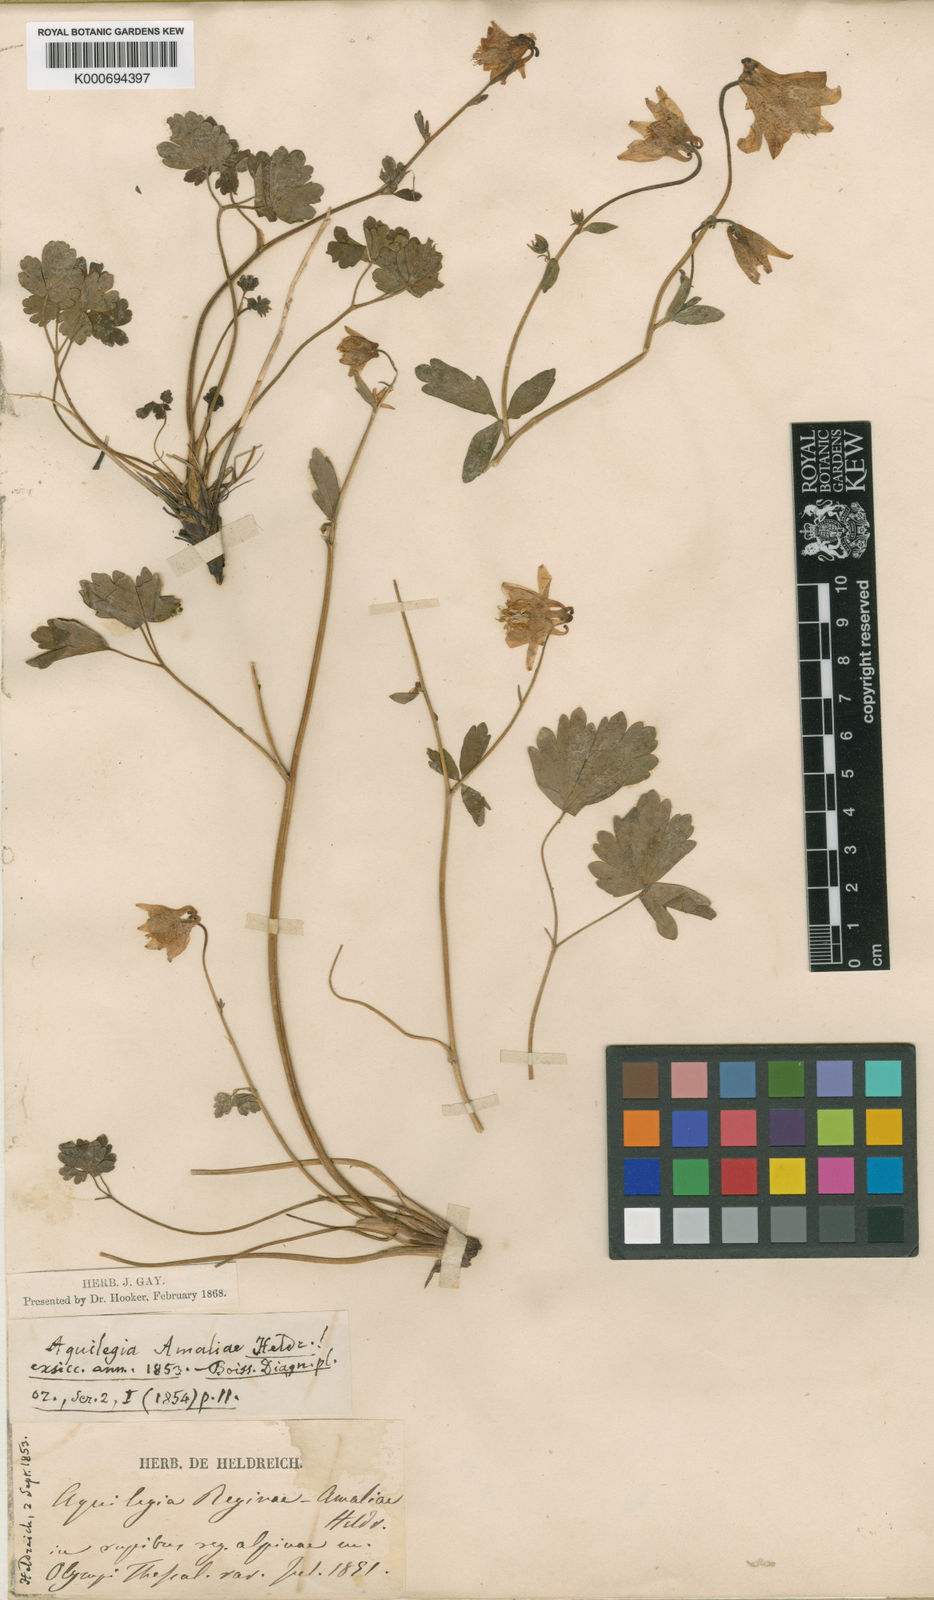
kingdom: Plantae
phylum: Tracheophyta
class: Magnoliopsida
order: Ranunculales
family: Ranunculaceae
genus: Aquilegia
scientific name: Aquilegia
